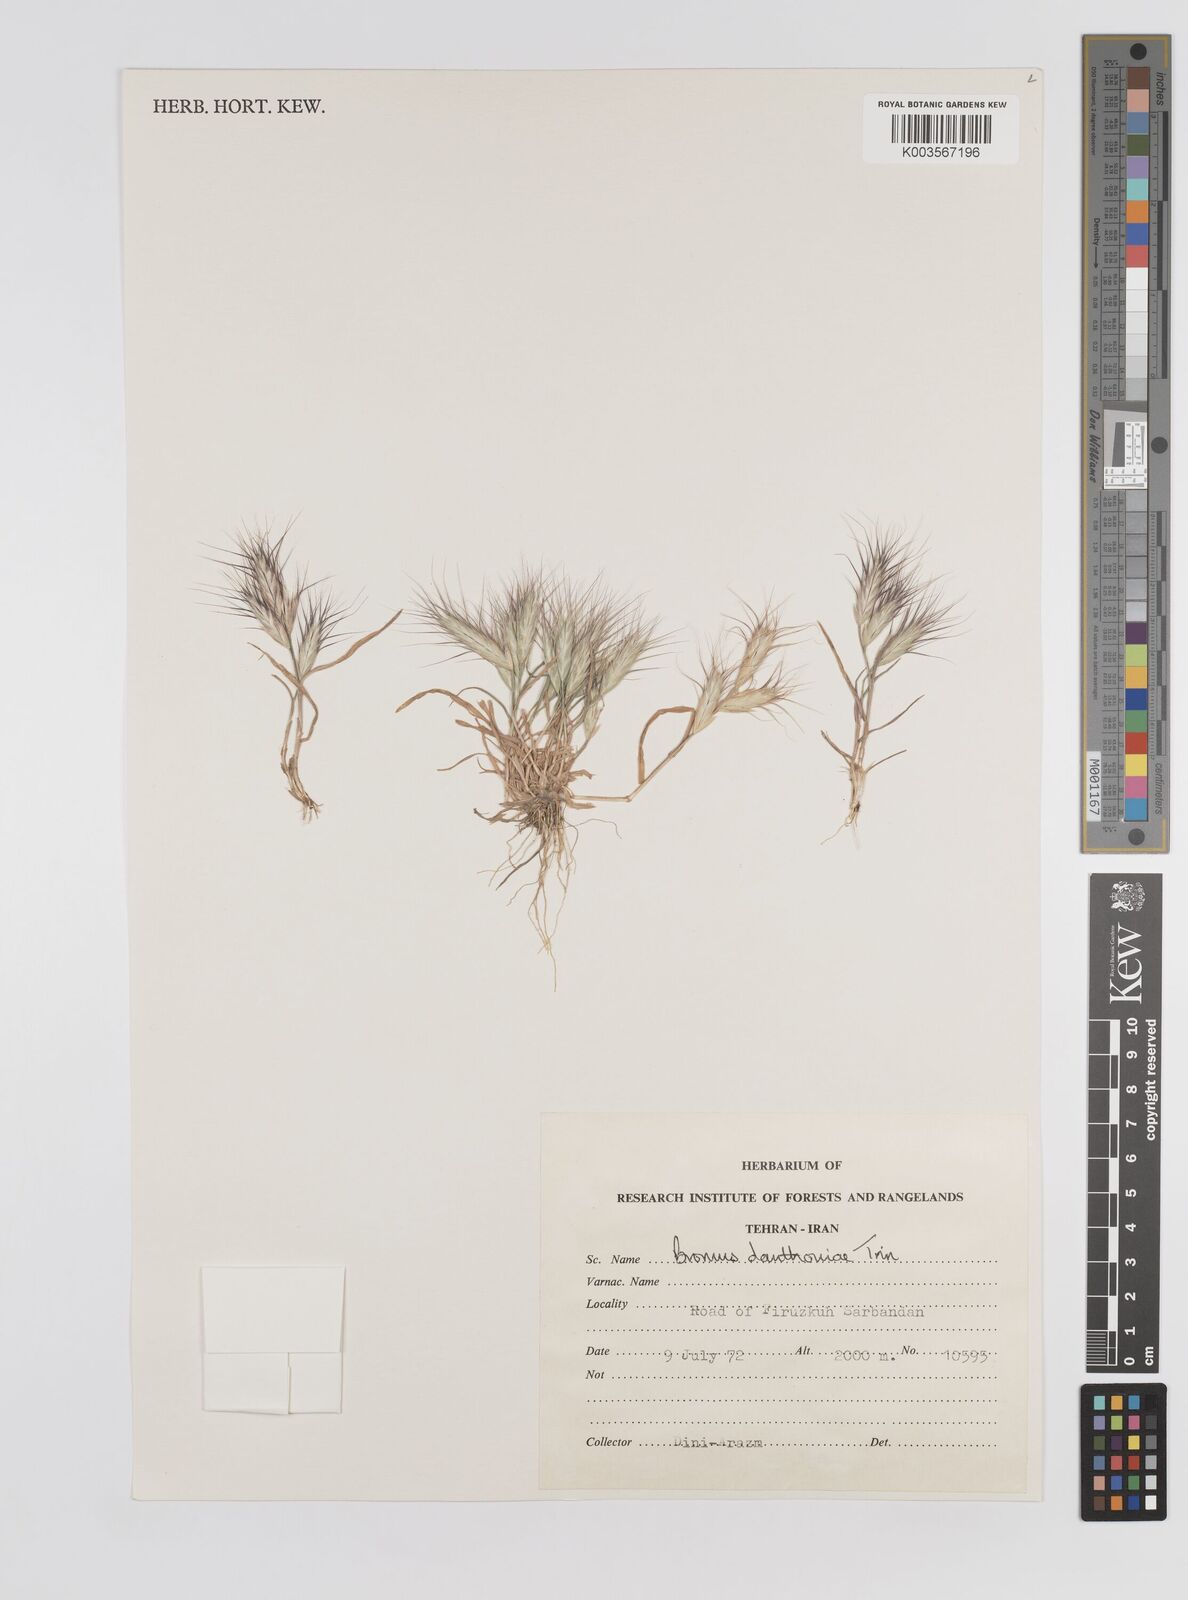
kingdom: Plantae
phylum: Tracheophyta
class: Liliopsida
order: Poales
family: Poaceae
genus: Bromus
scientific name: Bromus danthoniae
